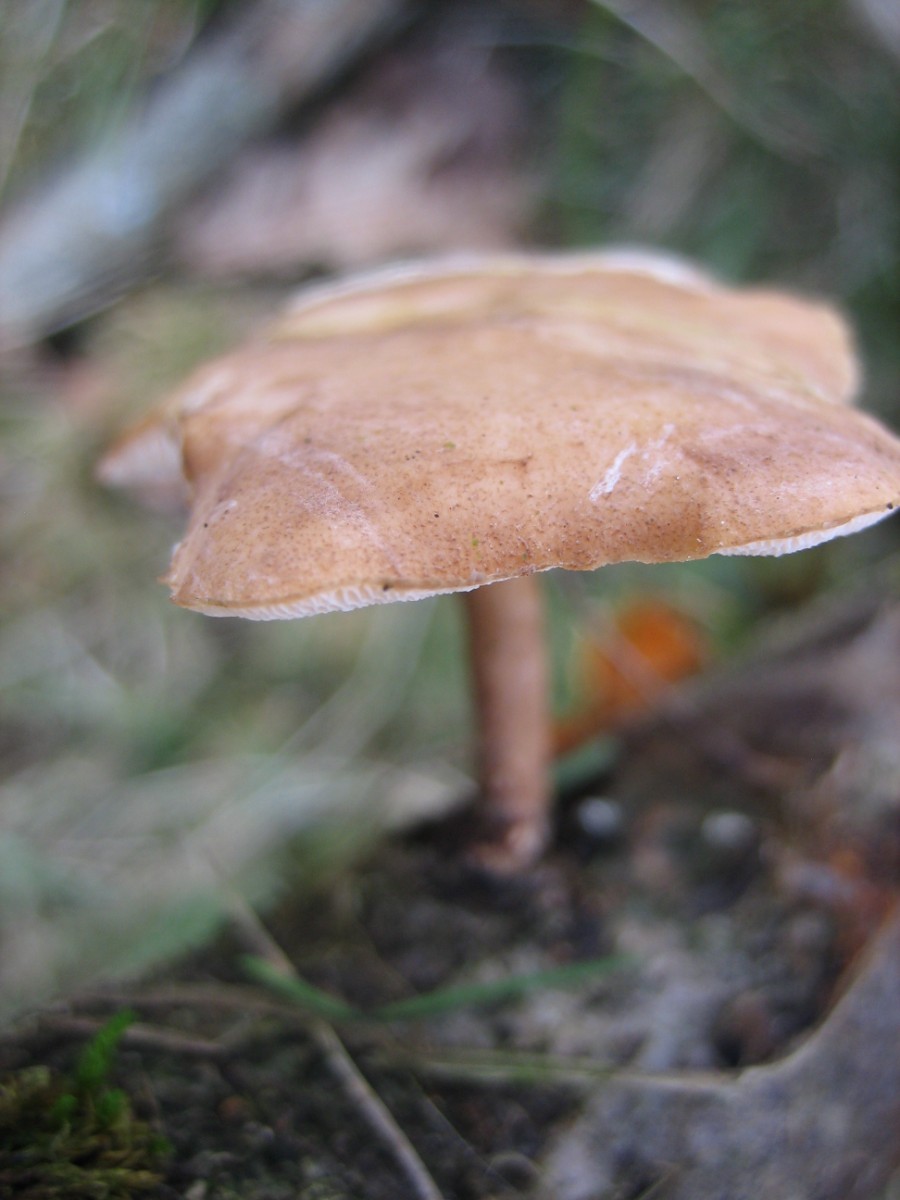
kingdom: Fungi
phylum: Basidiomycota
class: Agaricomycetes
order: Polyporales
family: Polyporaceae
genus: Lentinus
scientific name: Lentinus brumalis
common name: vinter-stilkporesvamp
